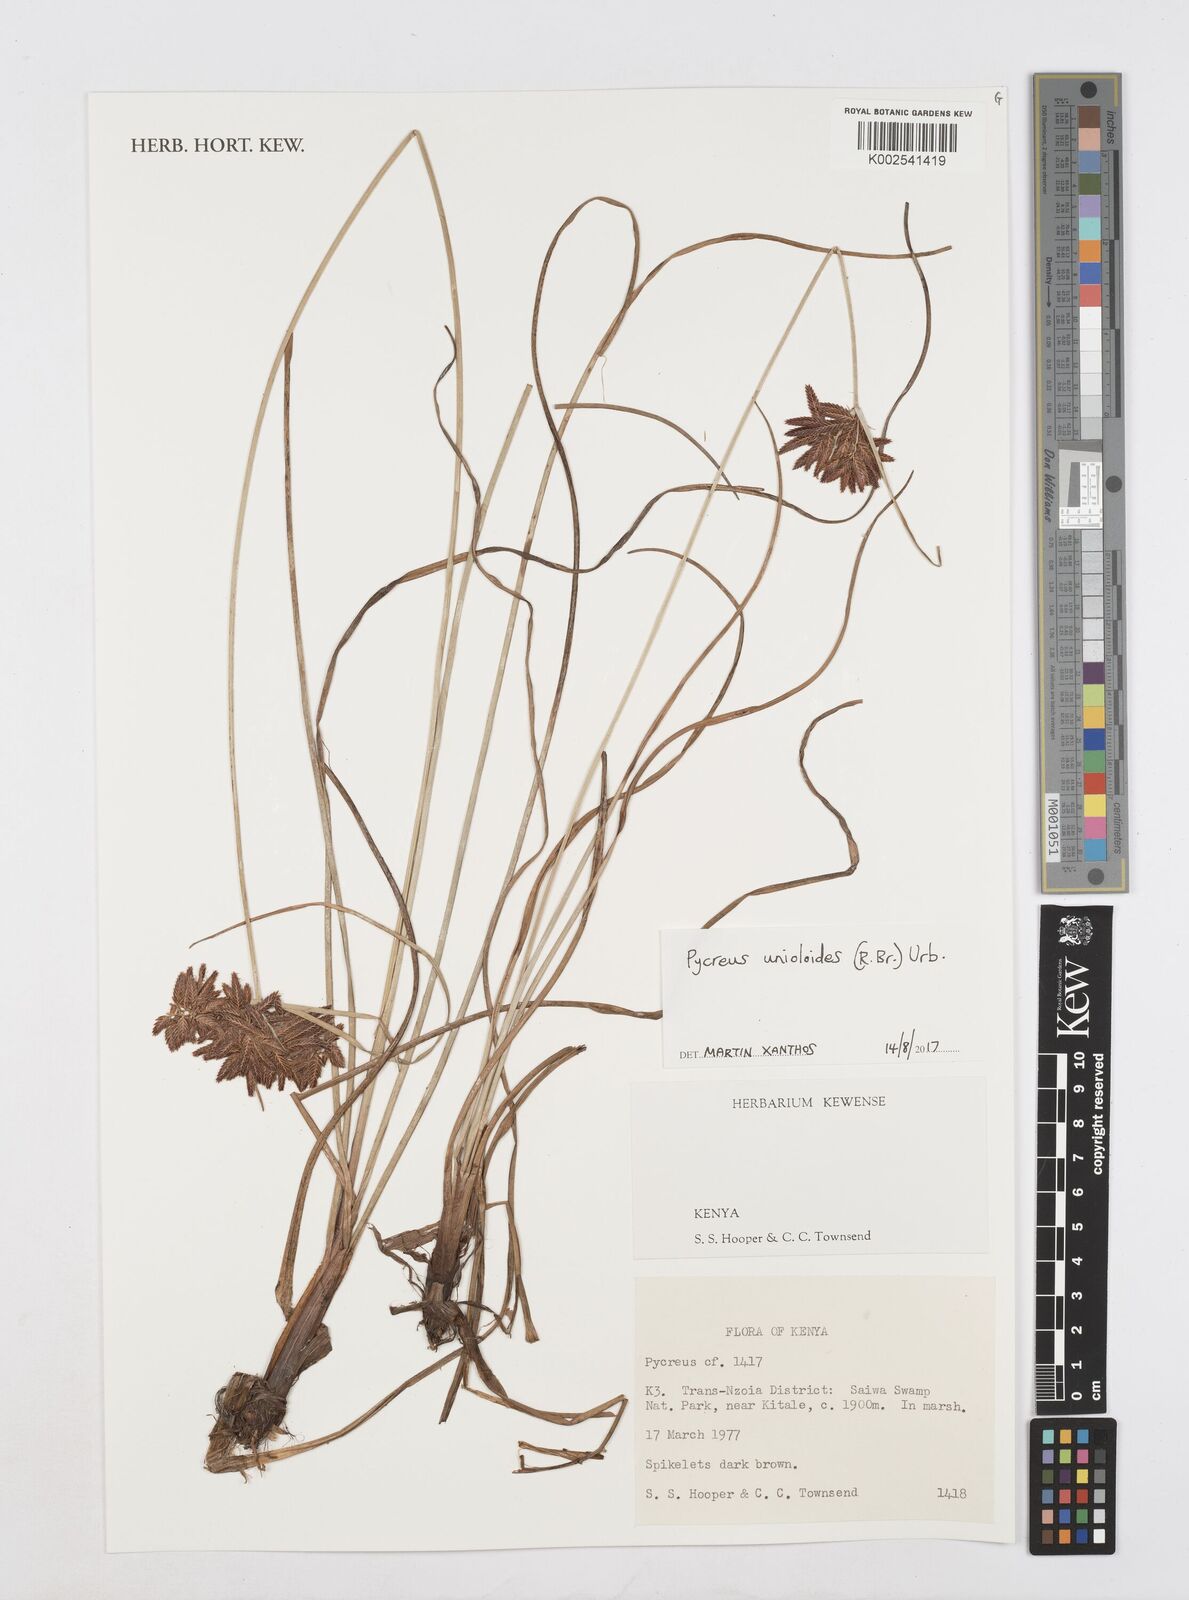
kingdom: Plantae
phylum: Tracheophyta
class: Liliopsida
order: Poales
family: Cyperaceae
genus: Cyperus
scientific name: Cyperus unioloides
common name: Uniola flatsedge
